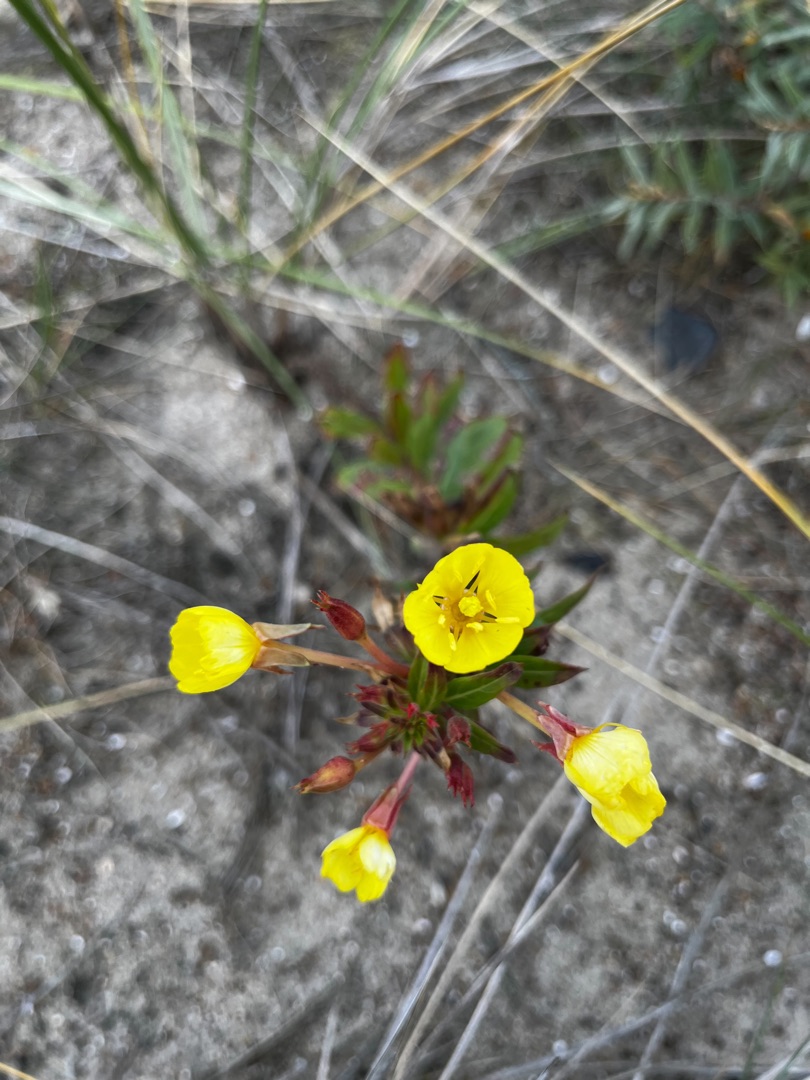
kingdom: Plantae
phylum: Tracheophyta
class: Magnoliopsida
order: Myrtales
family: Onagraceae
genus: Oenothera
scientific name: Oenothera fallax
